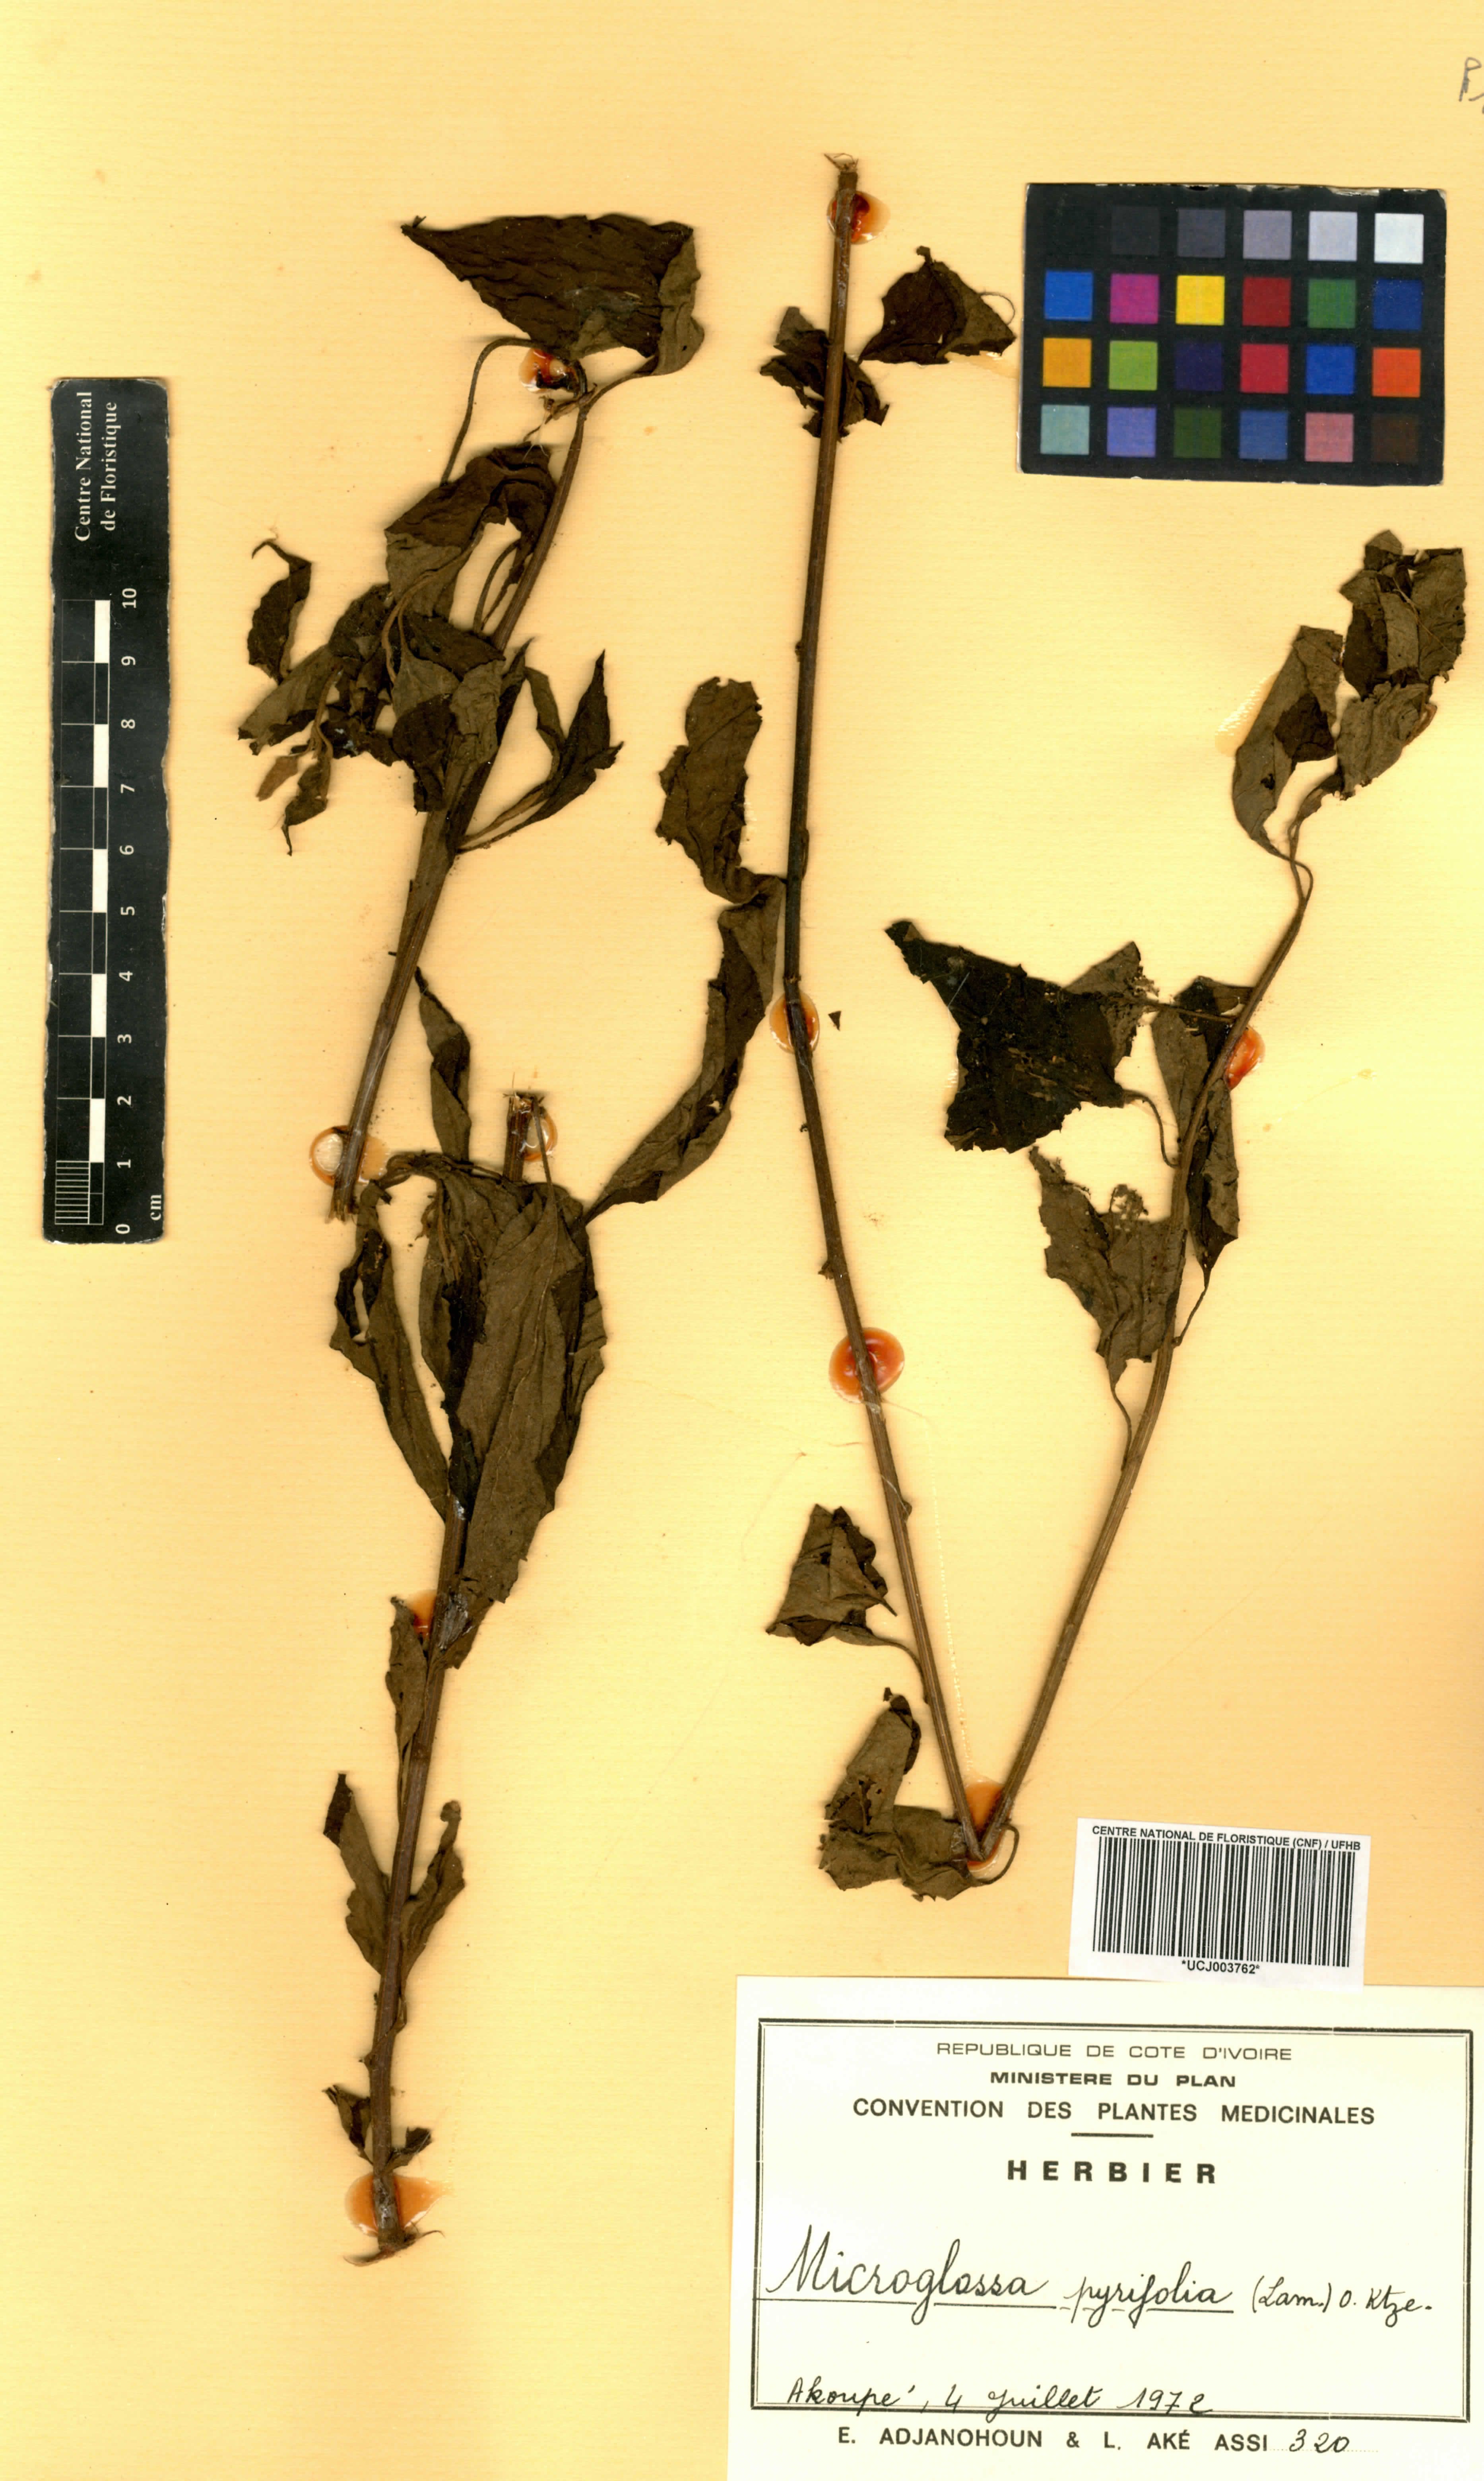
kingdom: Plantae
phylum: Tracheophyta
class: Magnoliopsida
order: Asterales
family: Asteraceae
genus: Microglossa
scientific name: Microglossa pyrifolia
